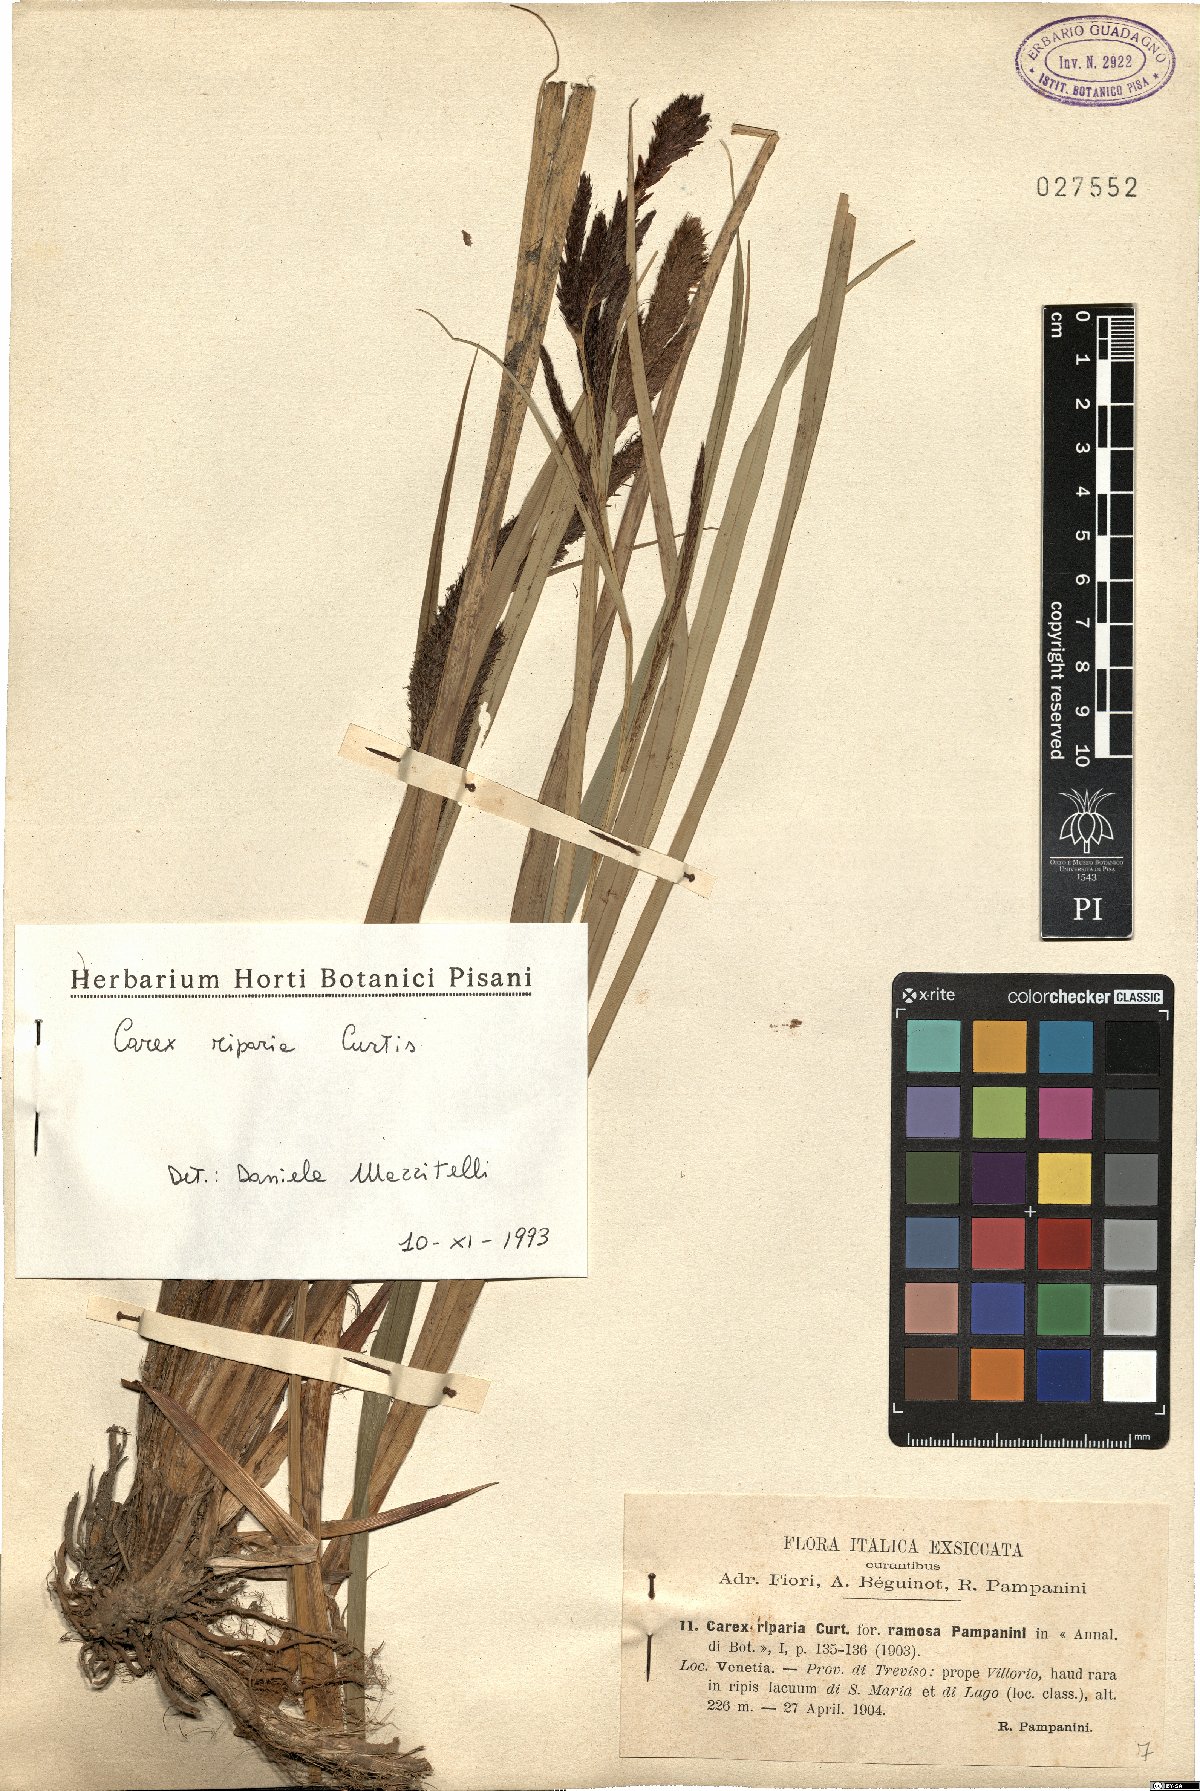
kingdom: Plantae
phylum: Tracheophyta
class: Liliopsida
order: Poales
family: Cyperaceae
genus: Carex
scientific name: Carex riparia
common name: Greater pond-sedge
